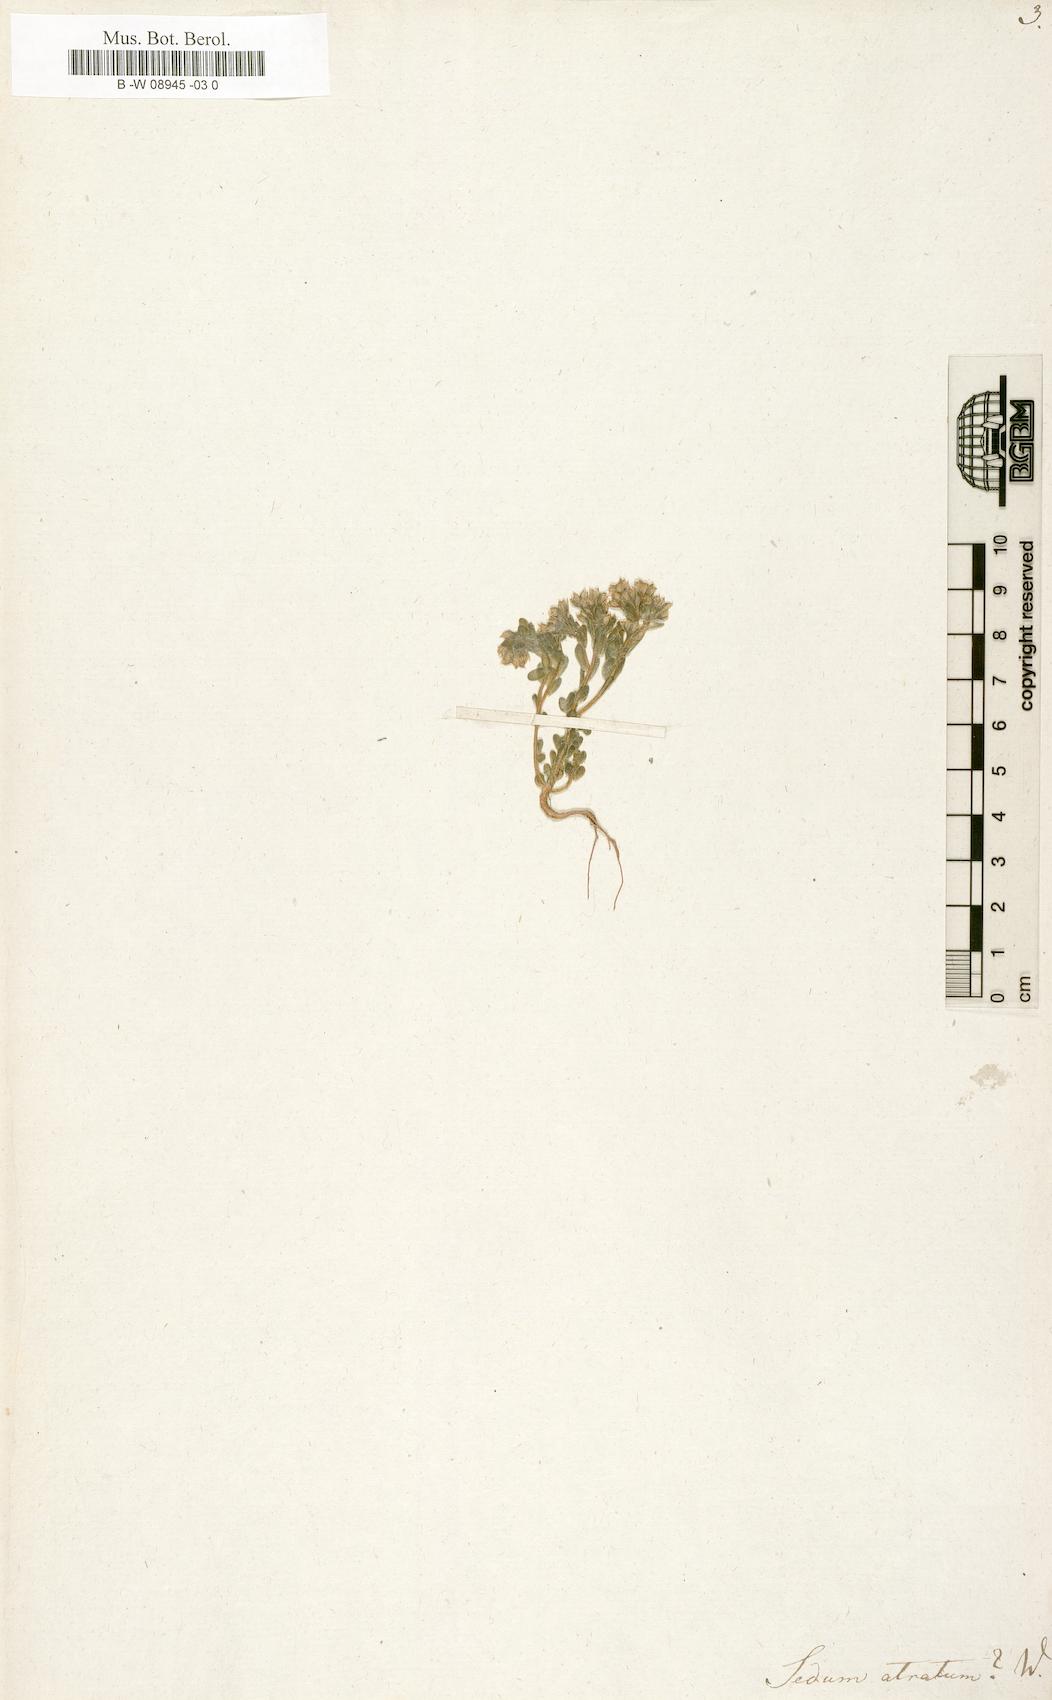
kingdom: Plantae
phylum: Tracheophyta
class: Magnoliopsida
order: Saxifragales
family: Crassulaceae
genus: Sedum
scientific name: Sedum atratum
